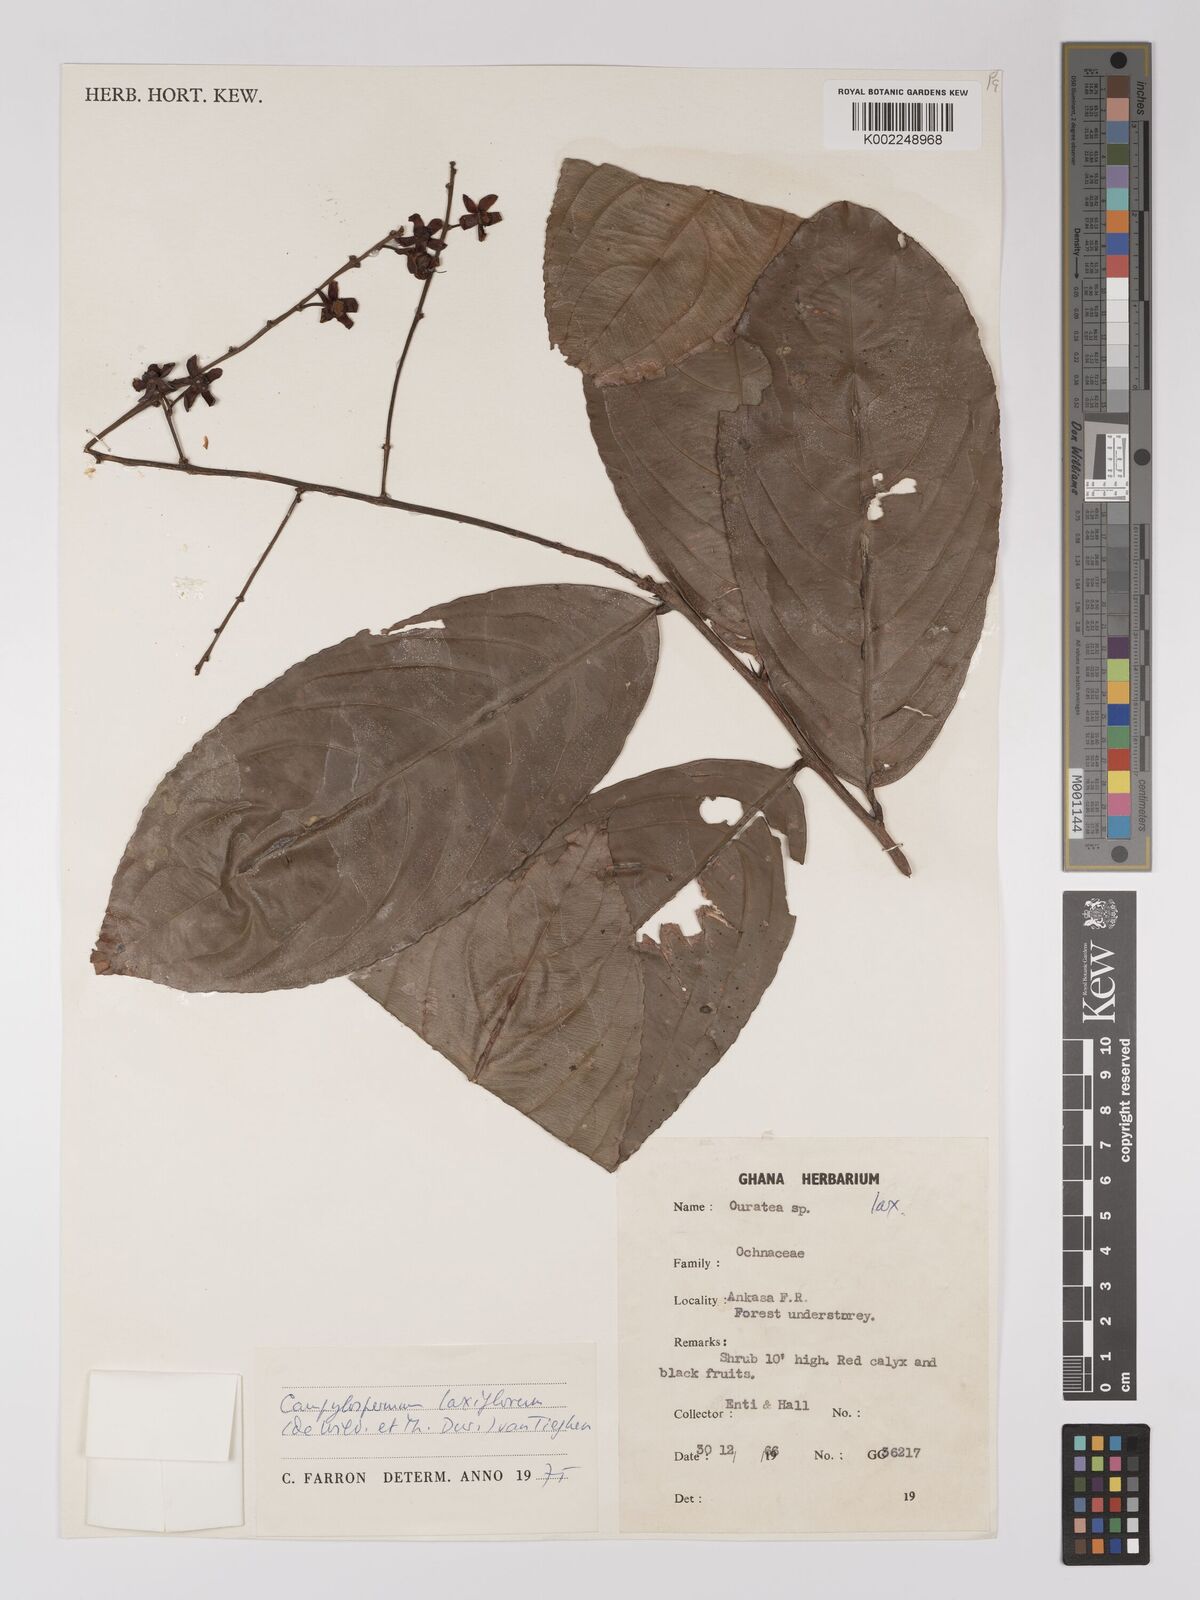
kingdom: Plantae
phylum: Tracheophyta
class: Magnoliopsida
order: Malpighiales
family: Ochnaceae
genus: Campylospermum
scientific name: Campylospermum laxiflorum
